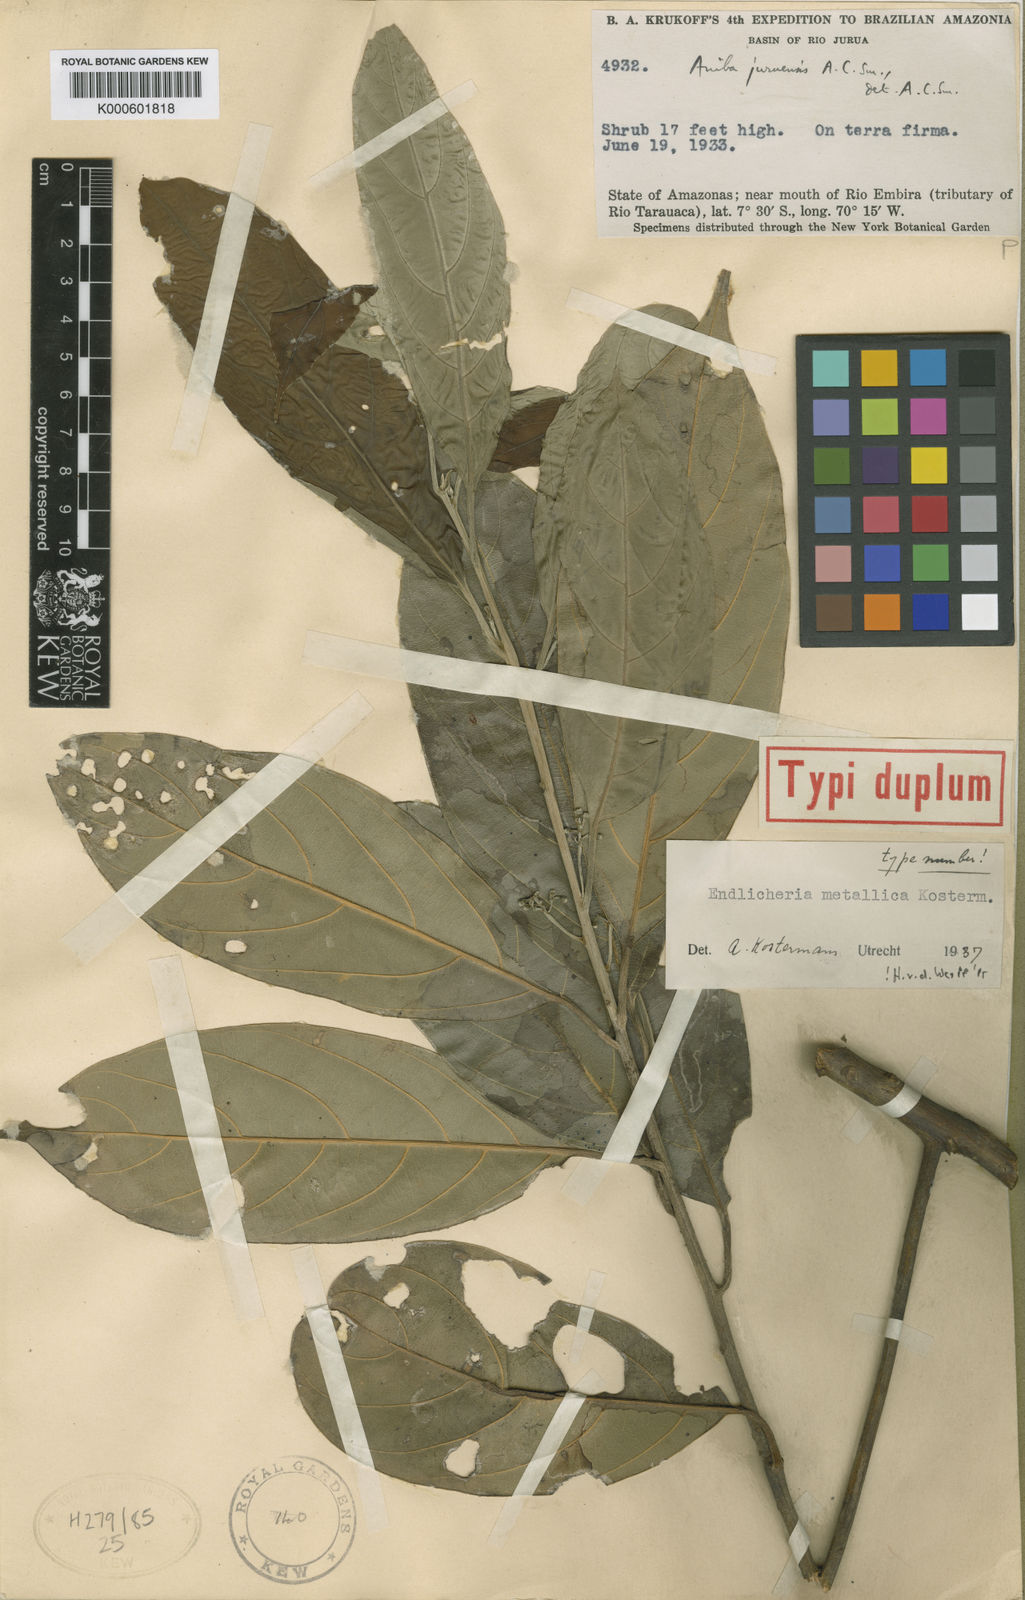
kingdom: Plantae
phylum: Tracheophyta
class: Magnoliopsida
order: Laurales
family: Lauraceae
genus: Endlicheria
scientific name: Endlicheria metallica
